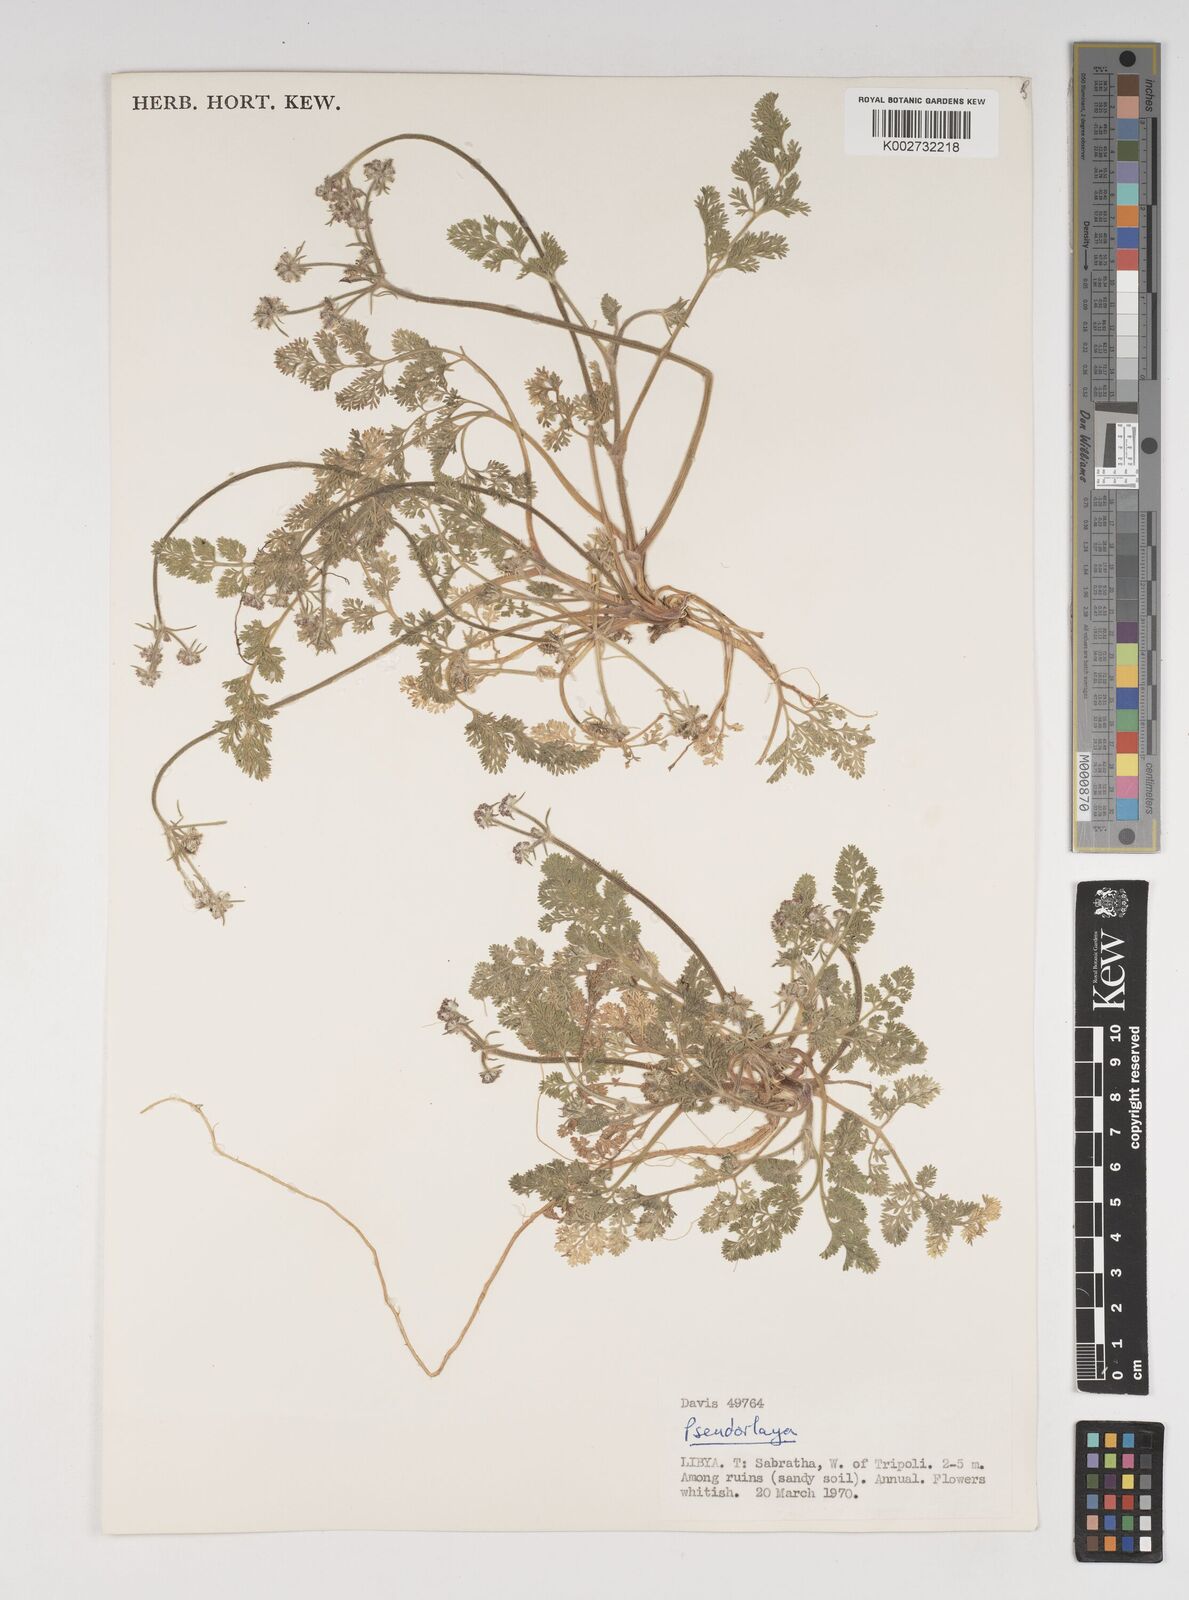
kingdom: Plantae
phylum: Tracheophyta
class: Magnoliopsida
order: Apiales
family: Apiaceae
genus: Daucus
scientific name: Daucus pumilus
